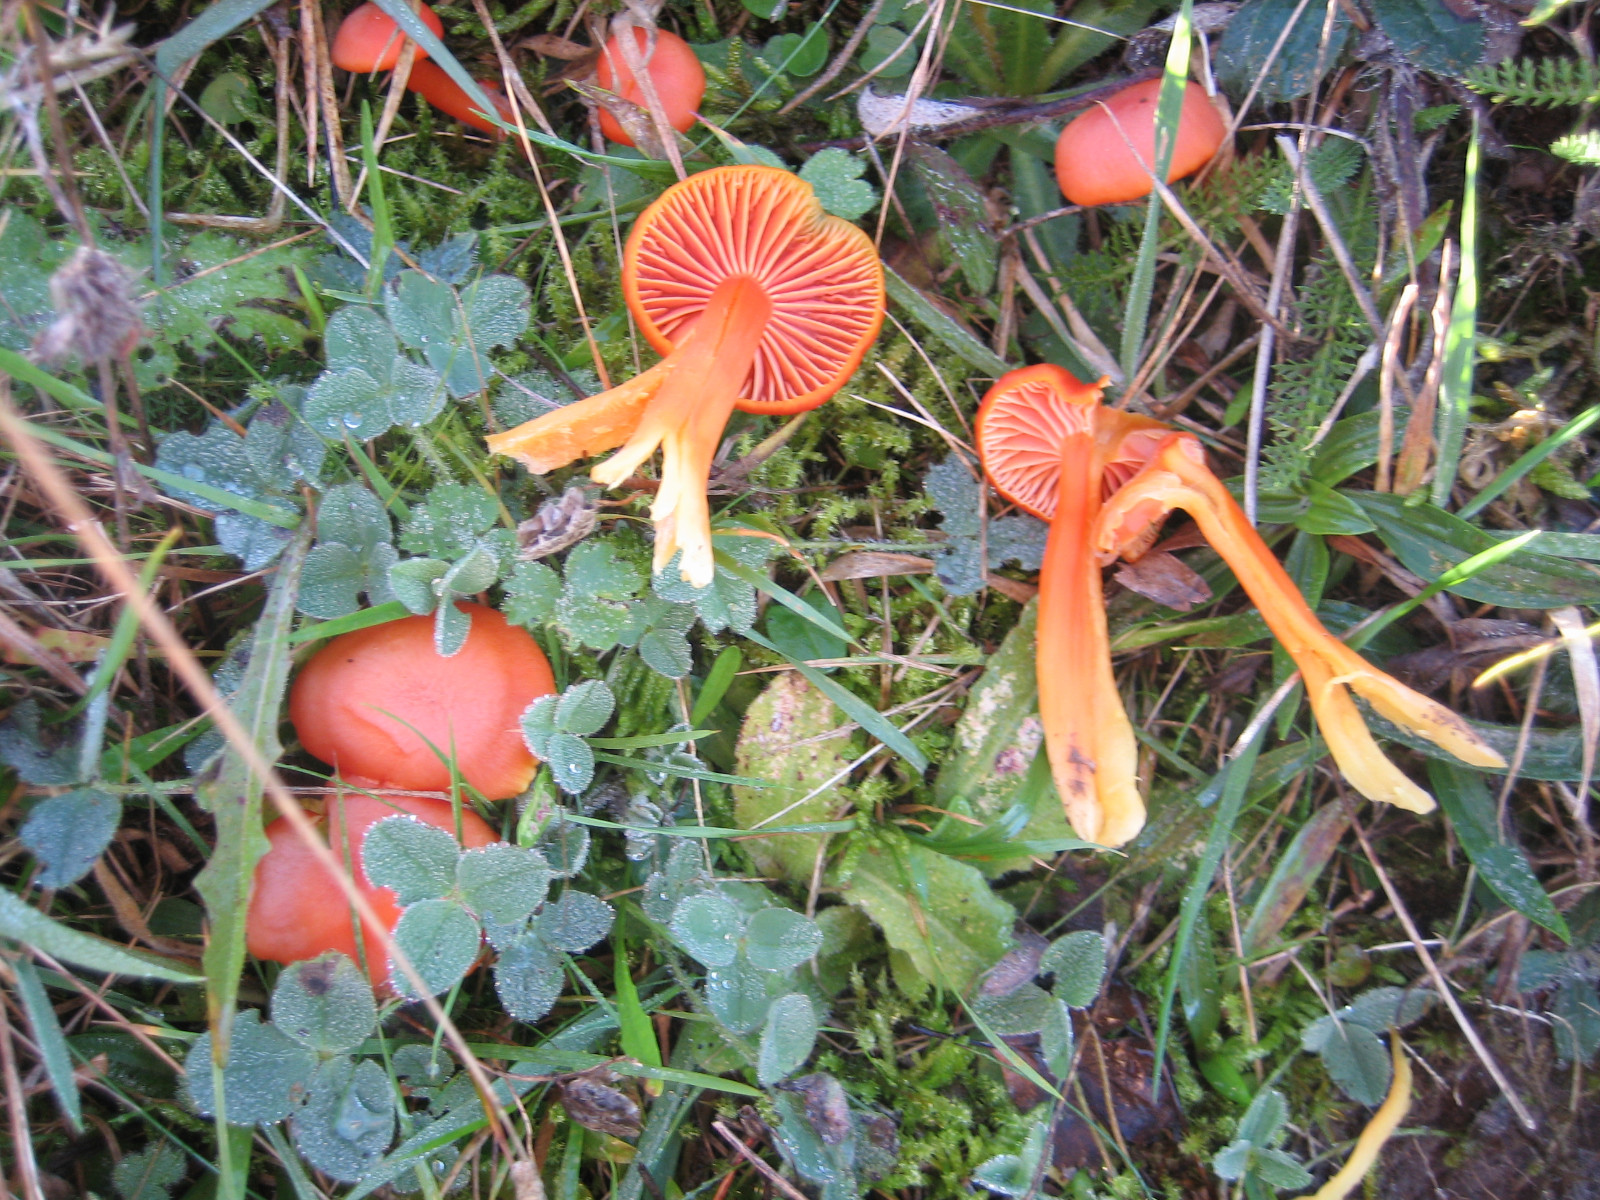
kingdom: Fungi
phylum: Basidiomycota
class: Agaricomycetes
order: Agaricales
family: Hygrophoraceae
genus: Hygrocybe
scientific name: Hygrocybe reidii
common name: honning-vokshat
